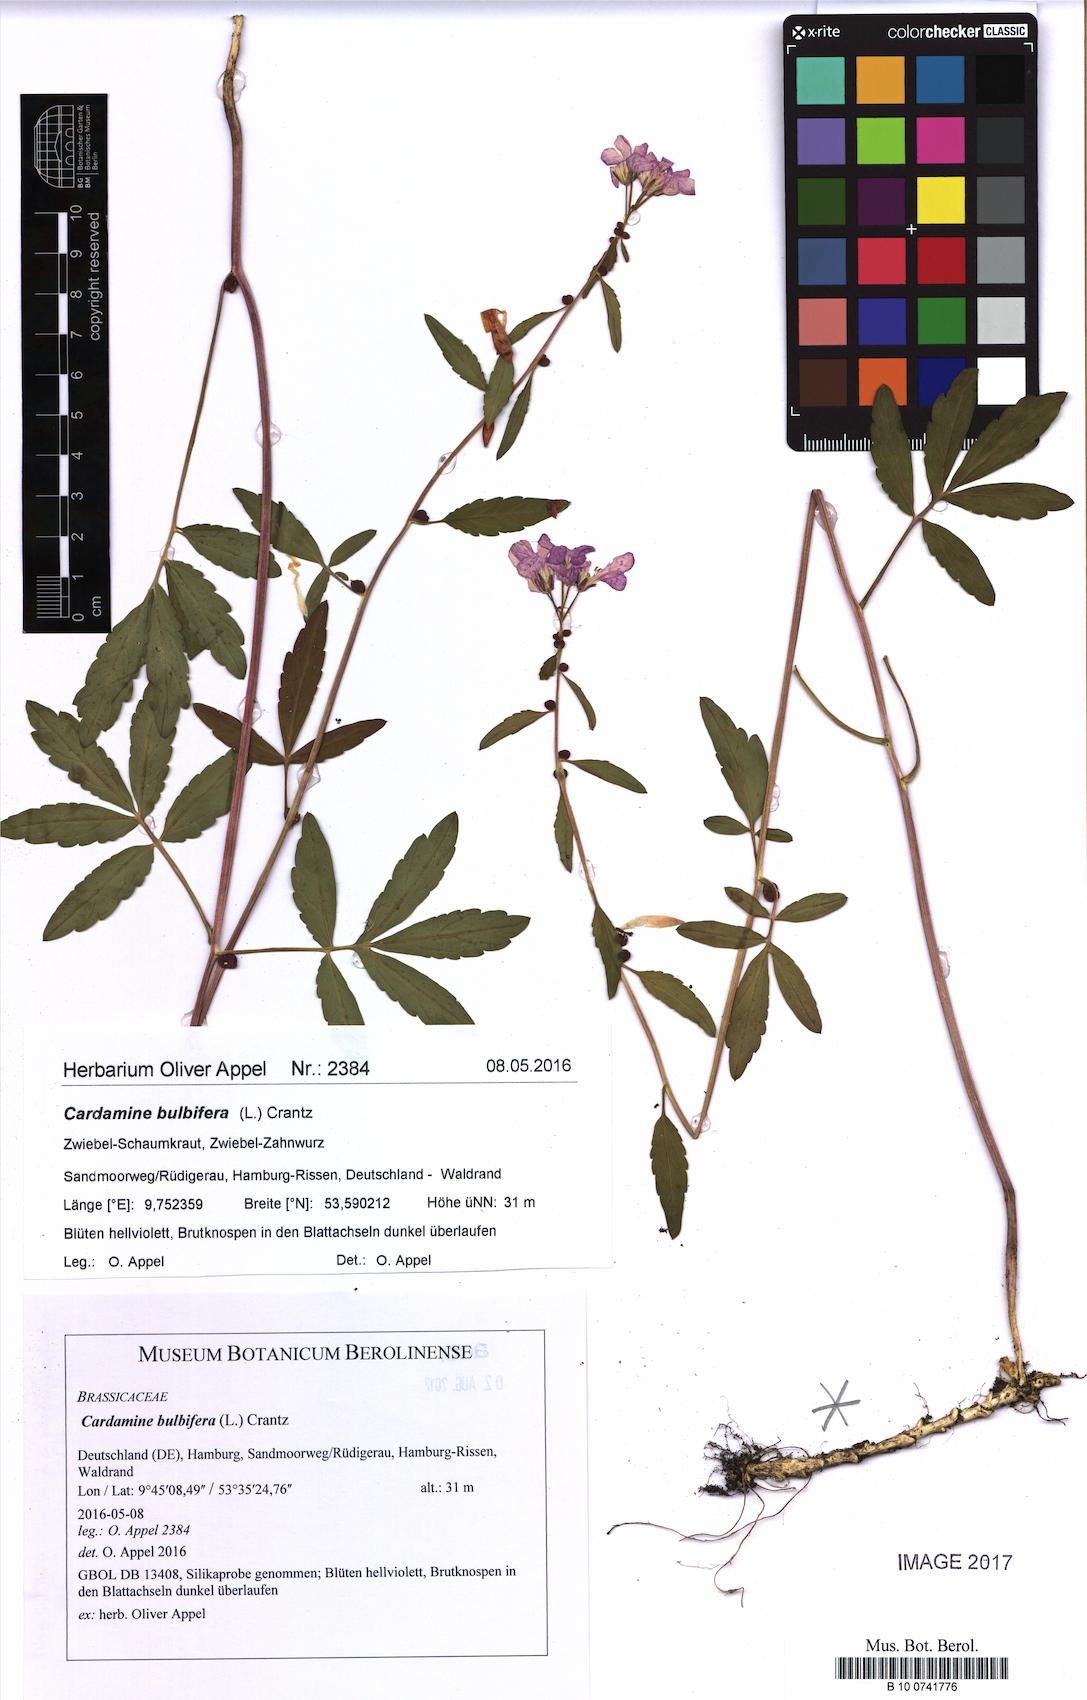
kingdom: Plantae
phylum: Tracheophyta
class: Magnoliopsida
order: Brassicales
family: Brassicaceae
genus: Cardamine
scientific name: Cardamine bulbifera
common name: Coralroot bittercress
